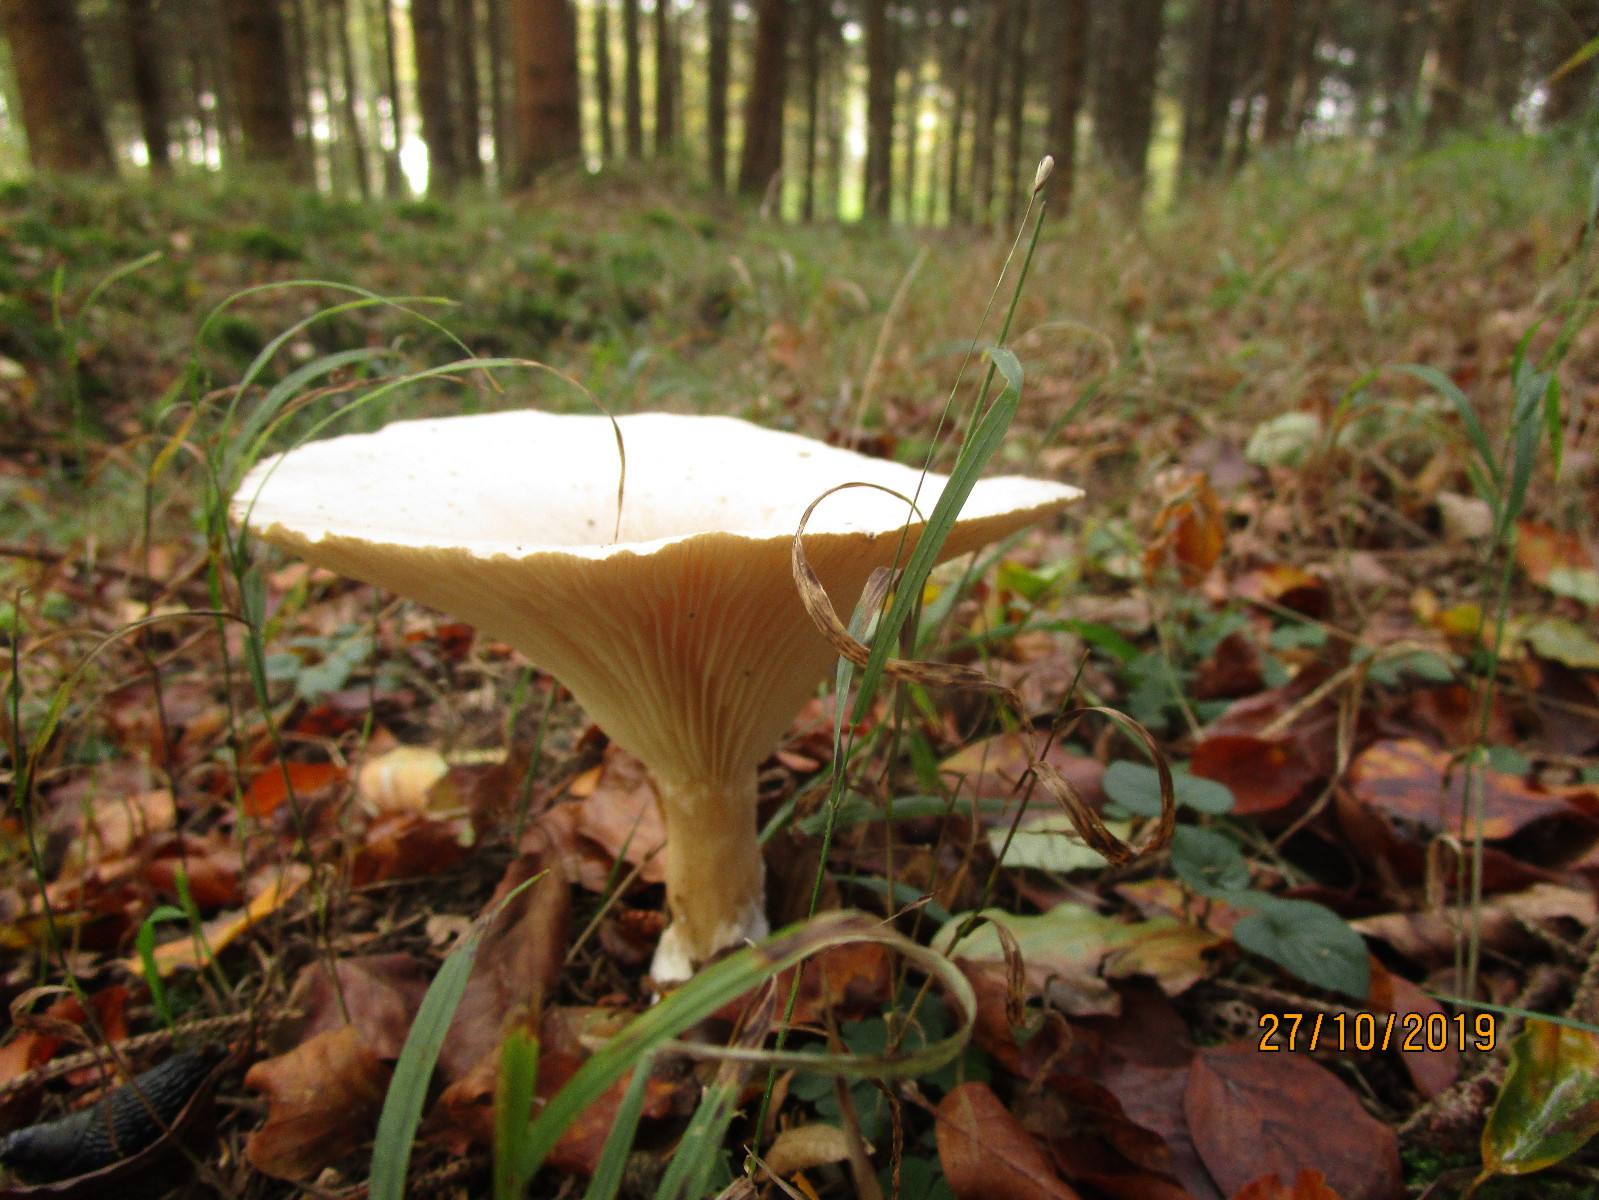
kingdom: Fungi
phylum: Basidiomycota
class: Agaricomycetes
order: Agaricales
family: Tricholomataceae
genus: Infundibulicybe
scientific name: Infundibulicybe geotropa
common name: stor tragthat
